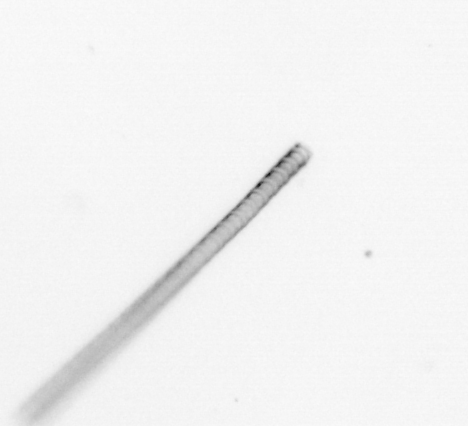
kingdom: Chromista
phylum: Ochrophyta
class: Bacillariophyceae
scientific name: Bacillariophyceae
